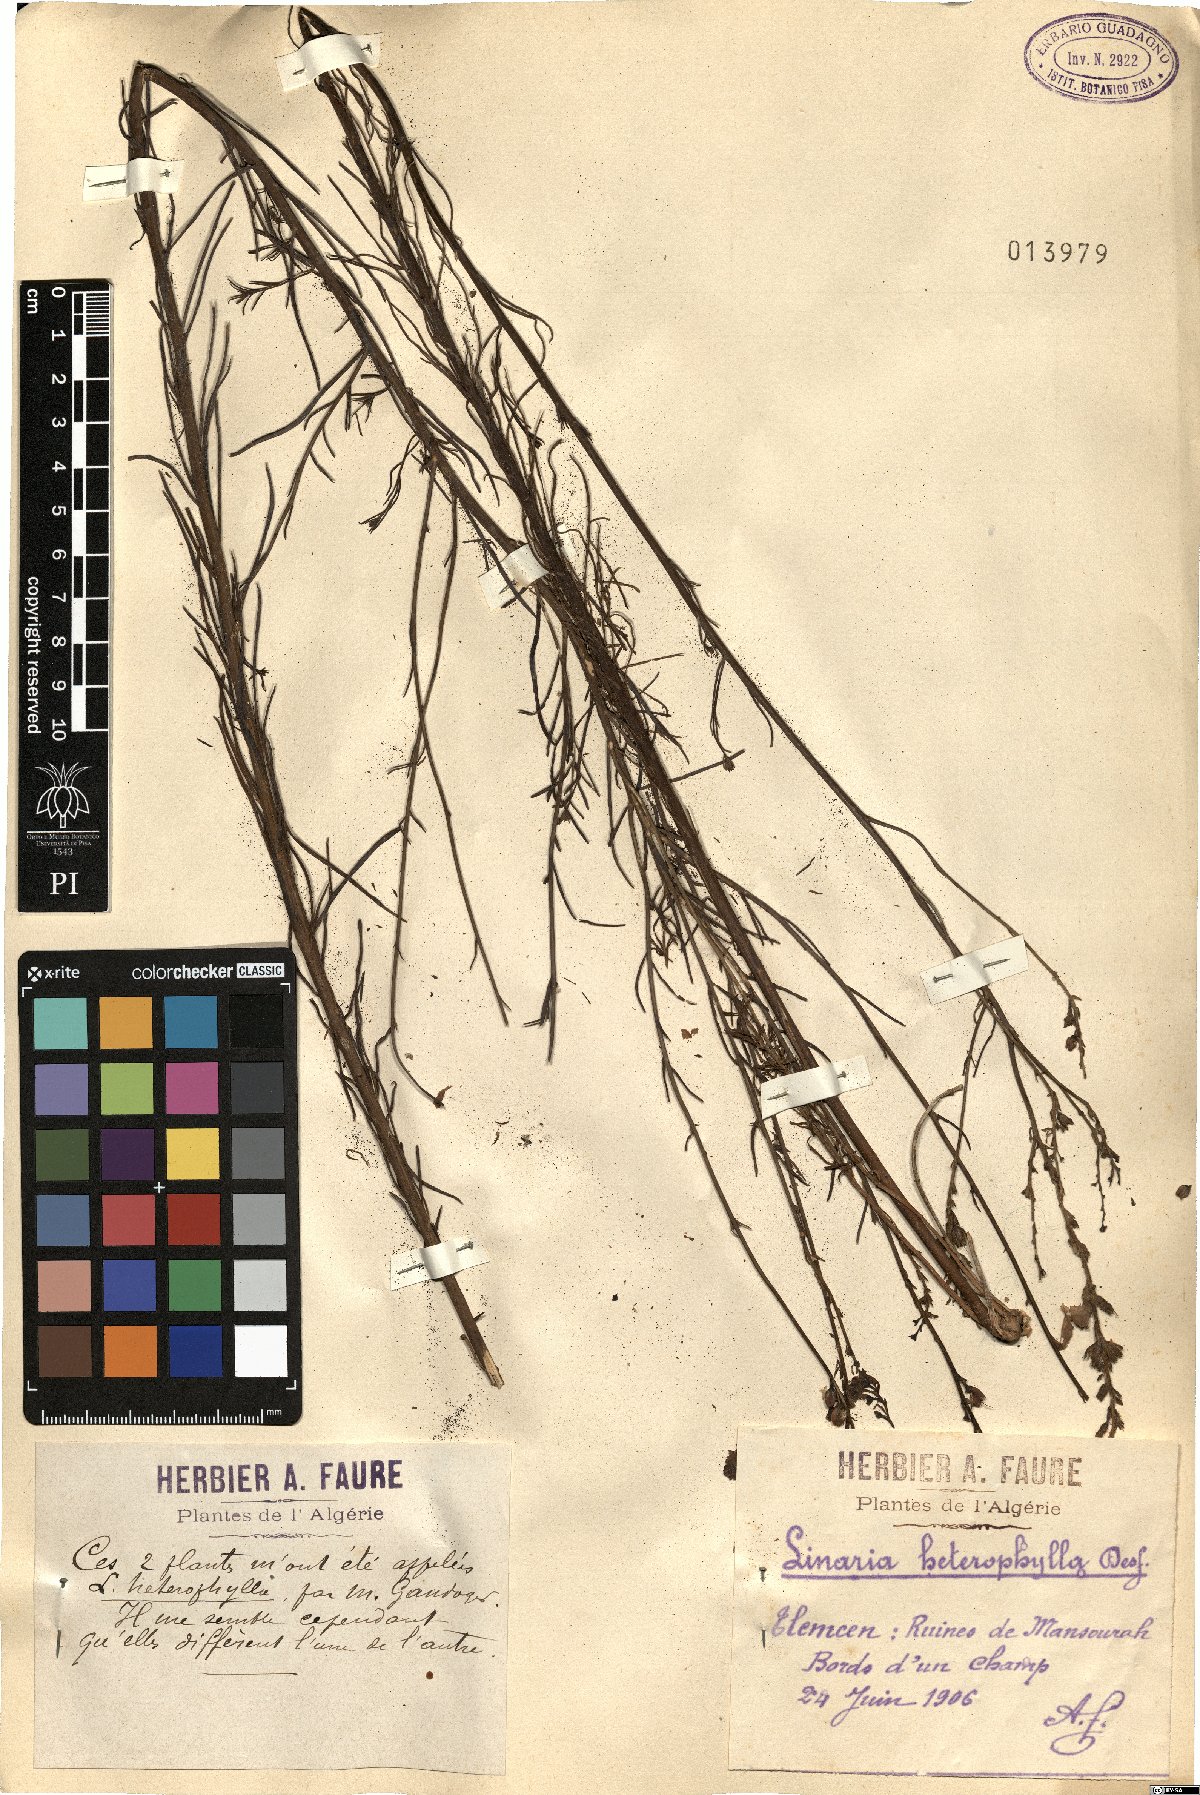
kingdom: Plantae
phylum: Tracheophyta
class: Magnoliopsida
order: Lamiales
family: Plantaginaceae
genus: Linaria
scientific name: Linaria multicaulis
